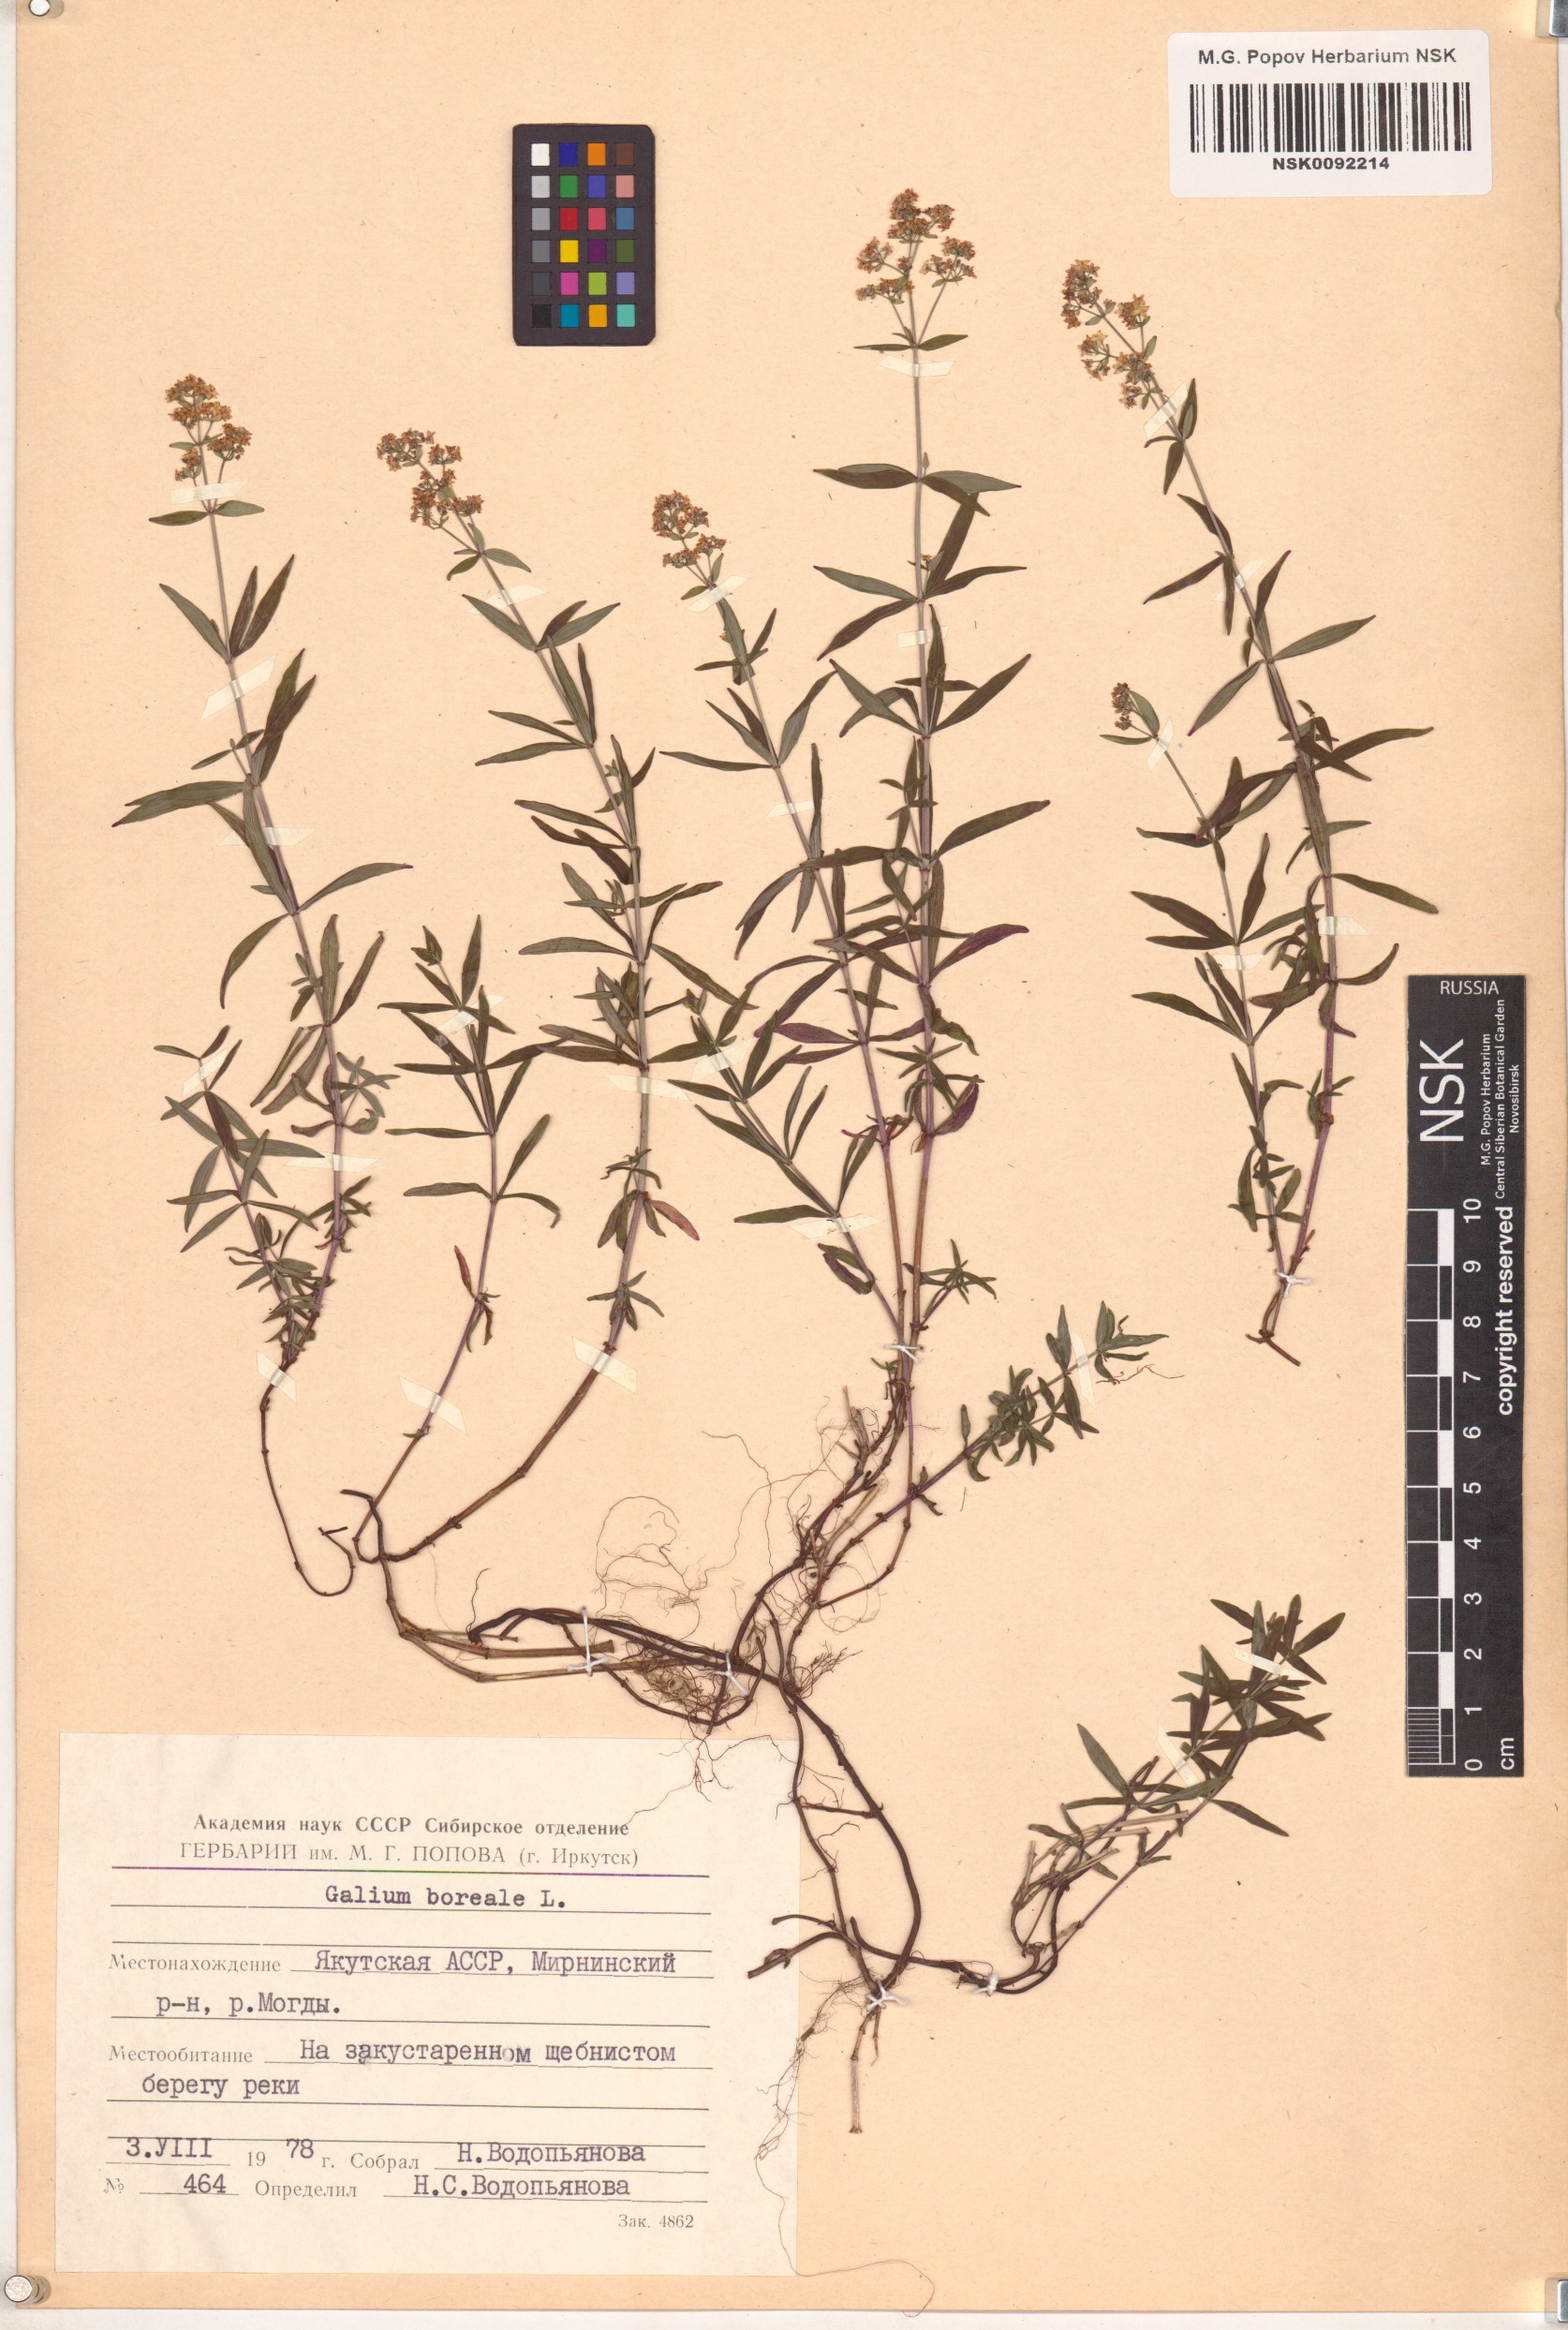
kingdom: Plantae
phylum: Tracheophyta
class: Magnoliopsida
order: Gentianales
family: Rubiaceae
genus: Galium
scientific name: Galium boreale
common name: Northern bedstraw
